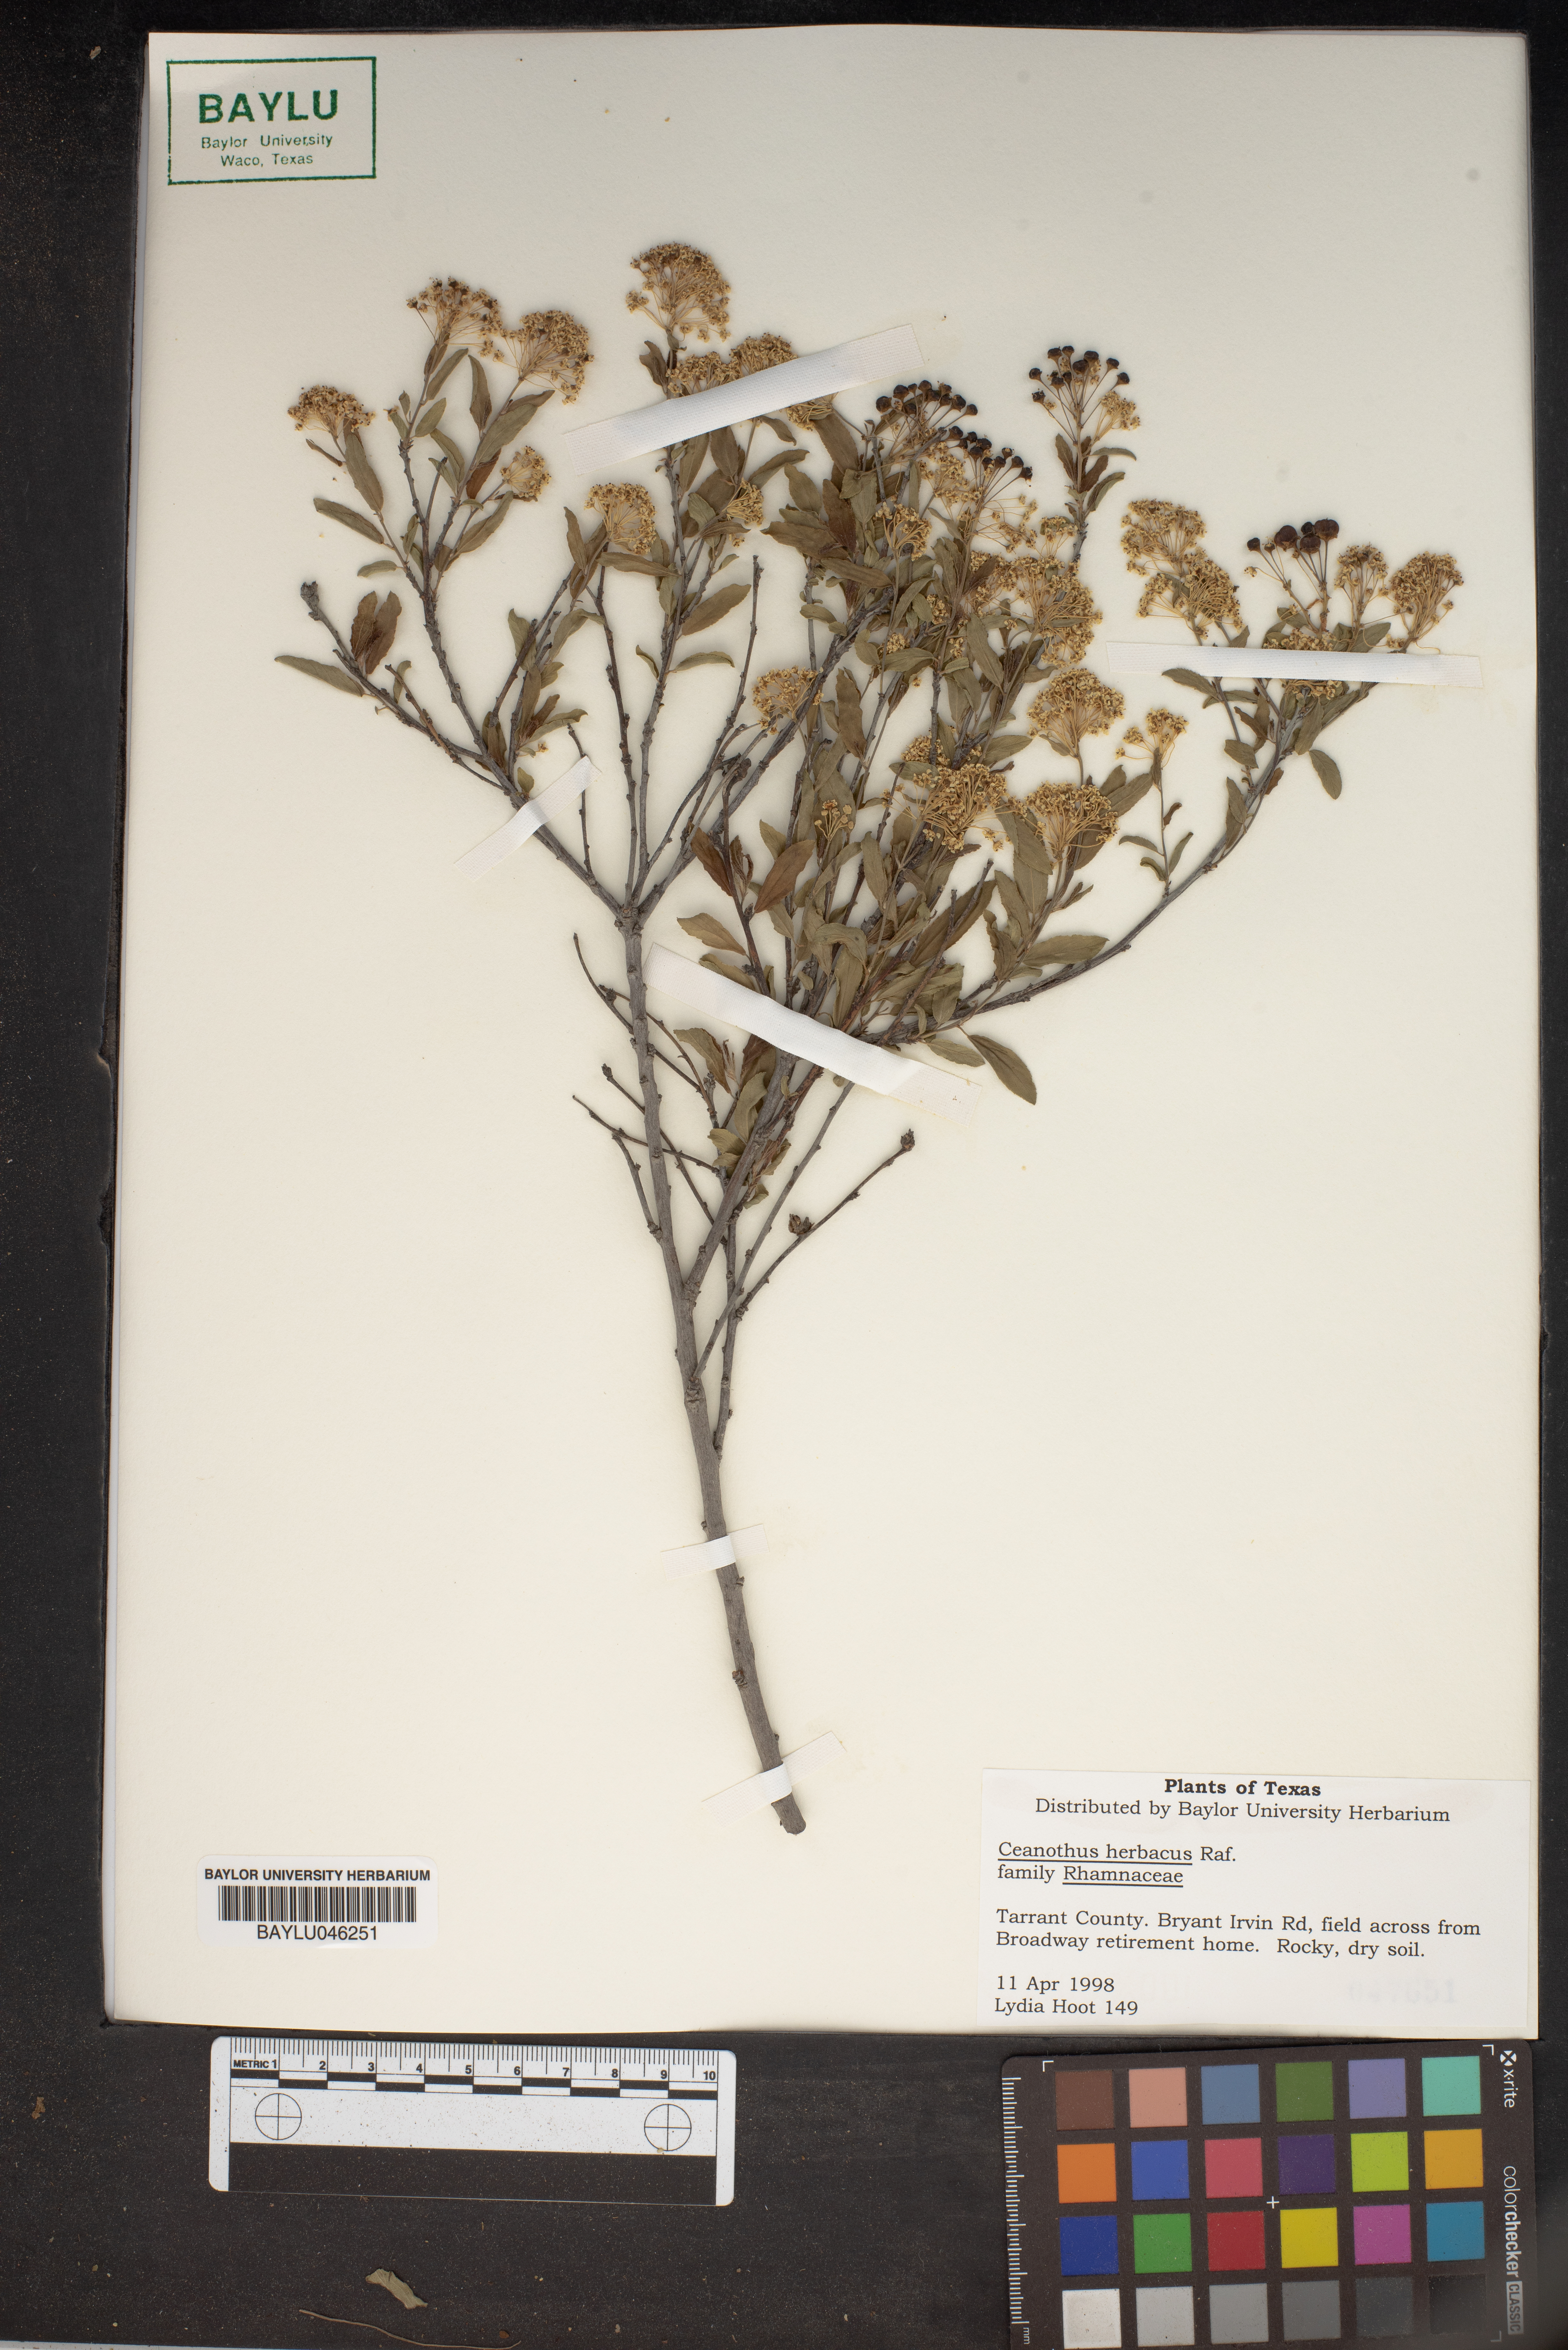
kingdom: Plantae
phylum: Tracheophyta
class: Magnoliopsida
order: Rosales
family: Rhamnaceae
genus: Ceanothus
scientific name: Ceanothus herbaceus
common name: Inland ceanothus
